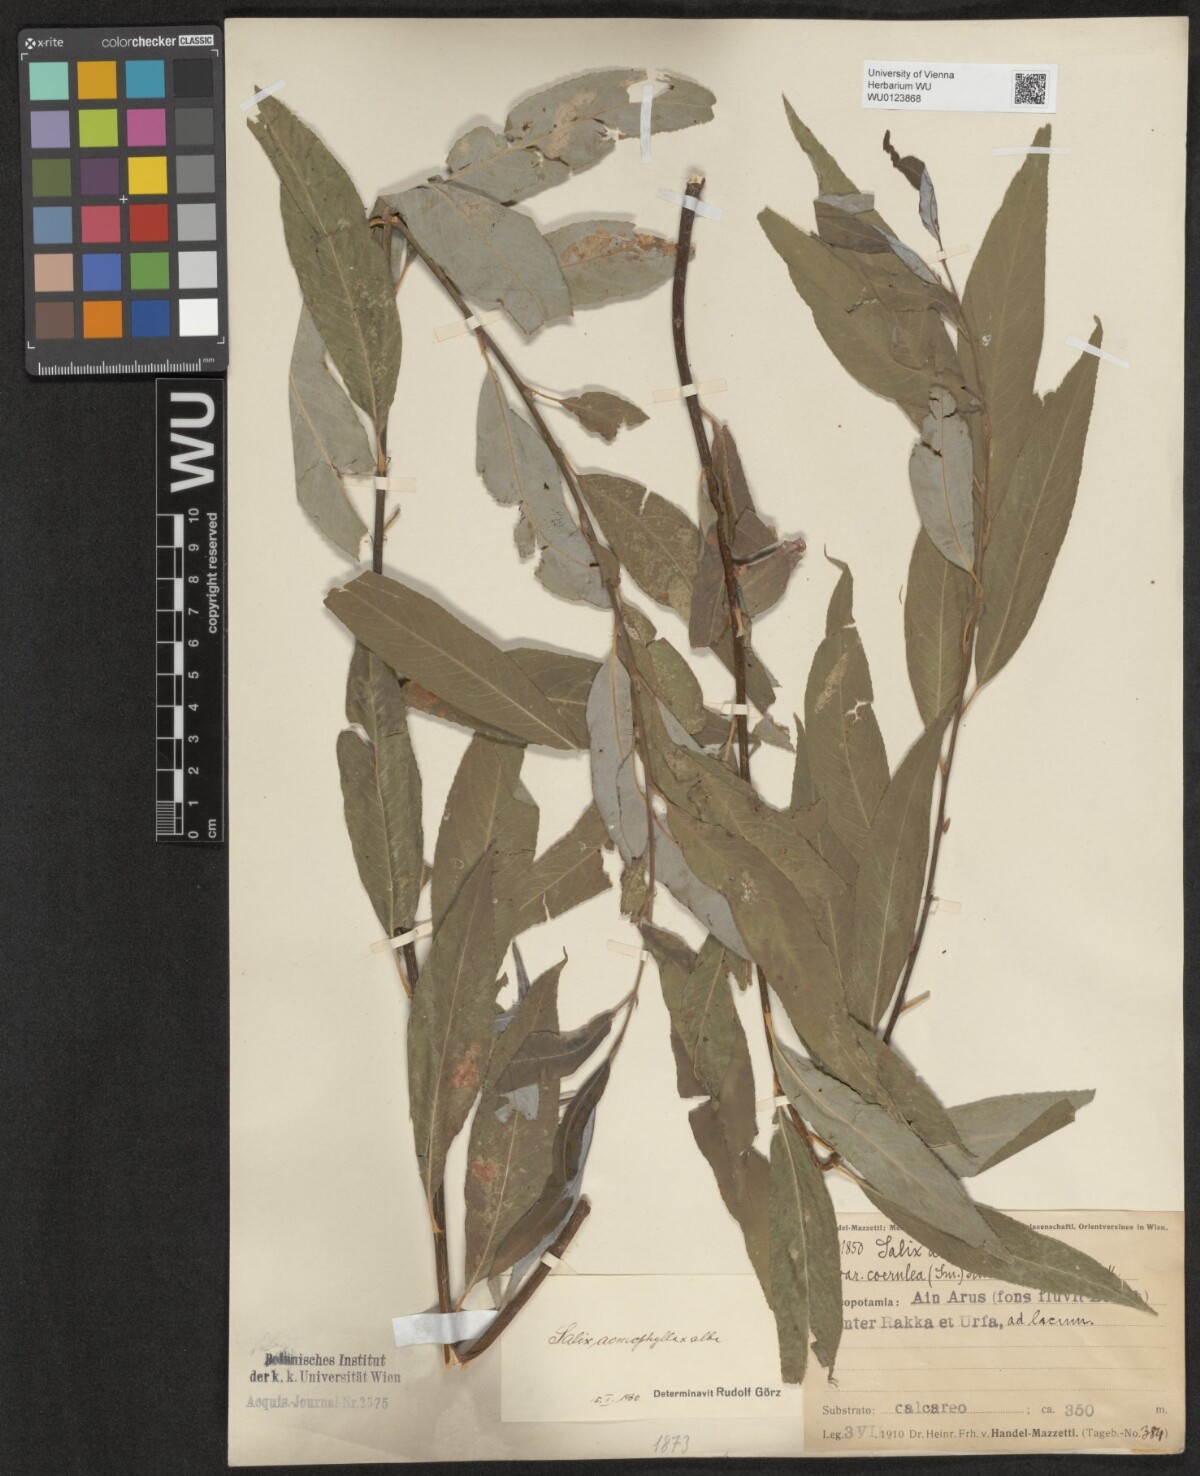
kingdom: Plantae
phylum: Tracheophyta
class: Magnoliopsida
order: Malpighiales
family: Salicaceae
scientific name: Salicaceae
